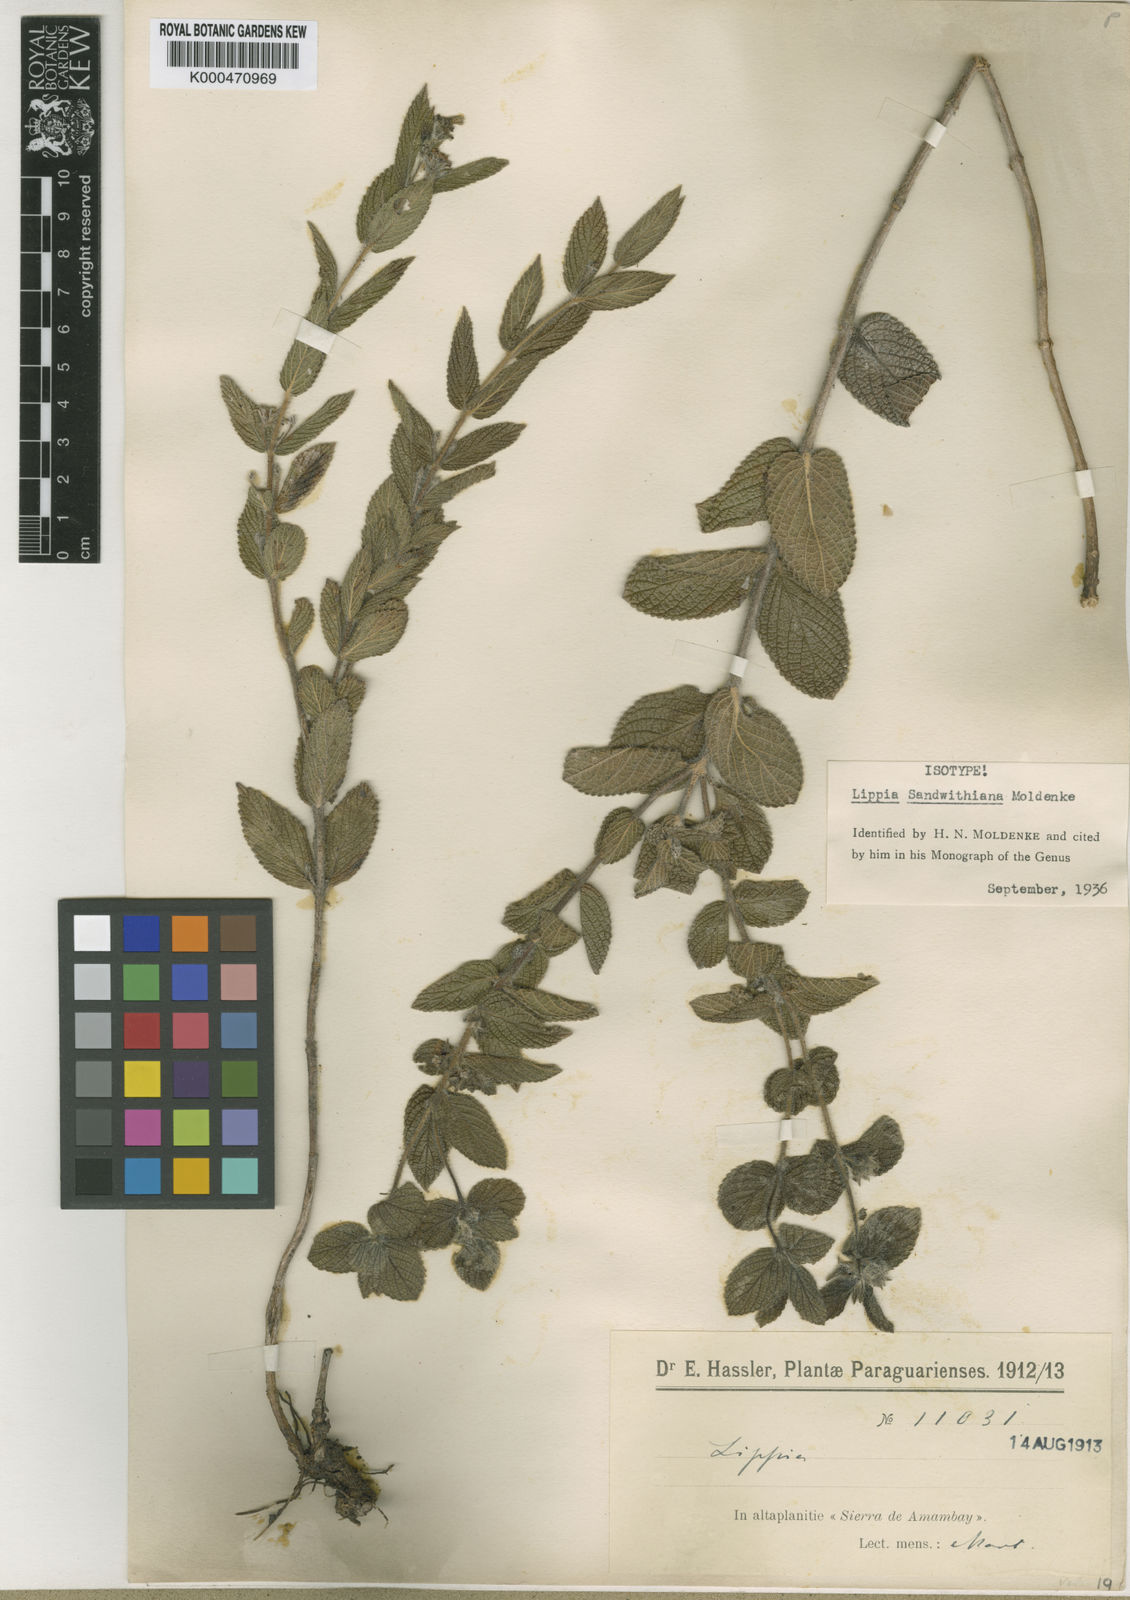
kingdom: Plantae
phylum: Tracheophyta
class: Magnoliopsida
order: Lamiales
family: Verbenaceae
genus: Lippia
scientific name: Lippia sandwithiana
